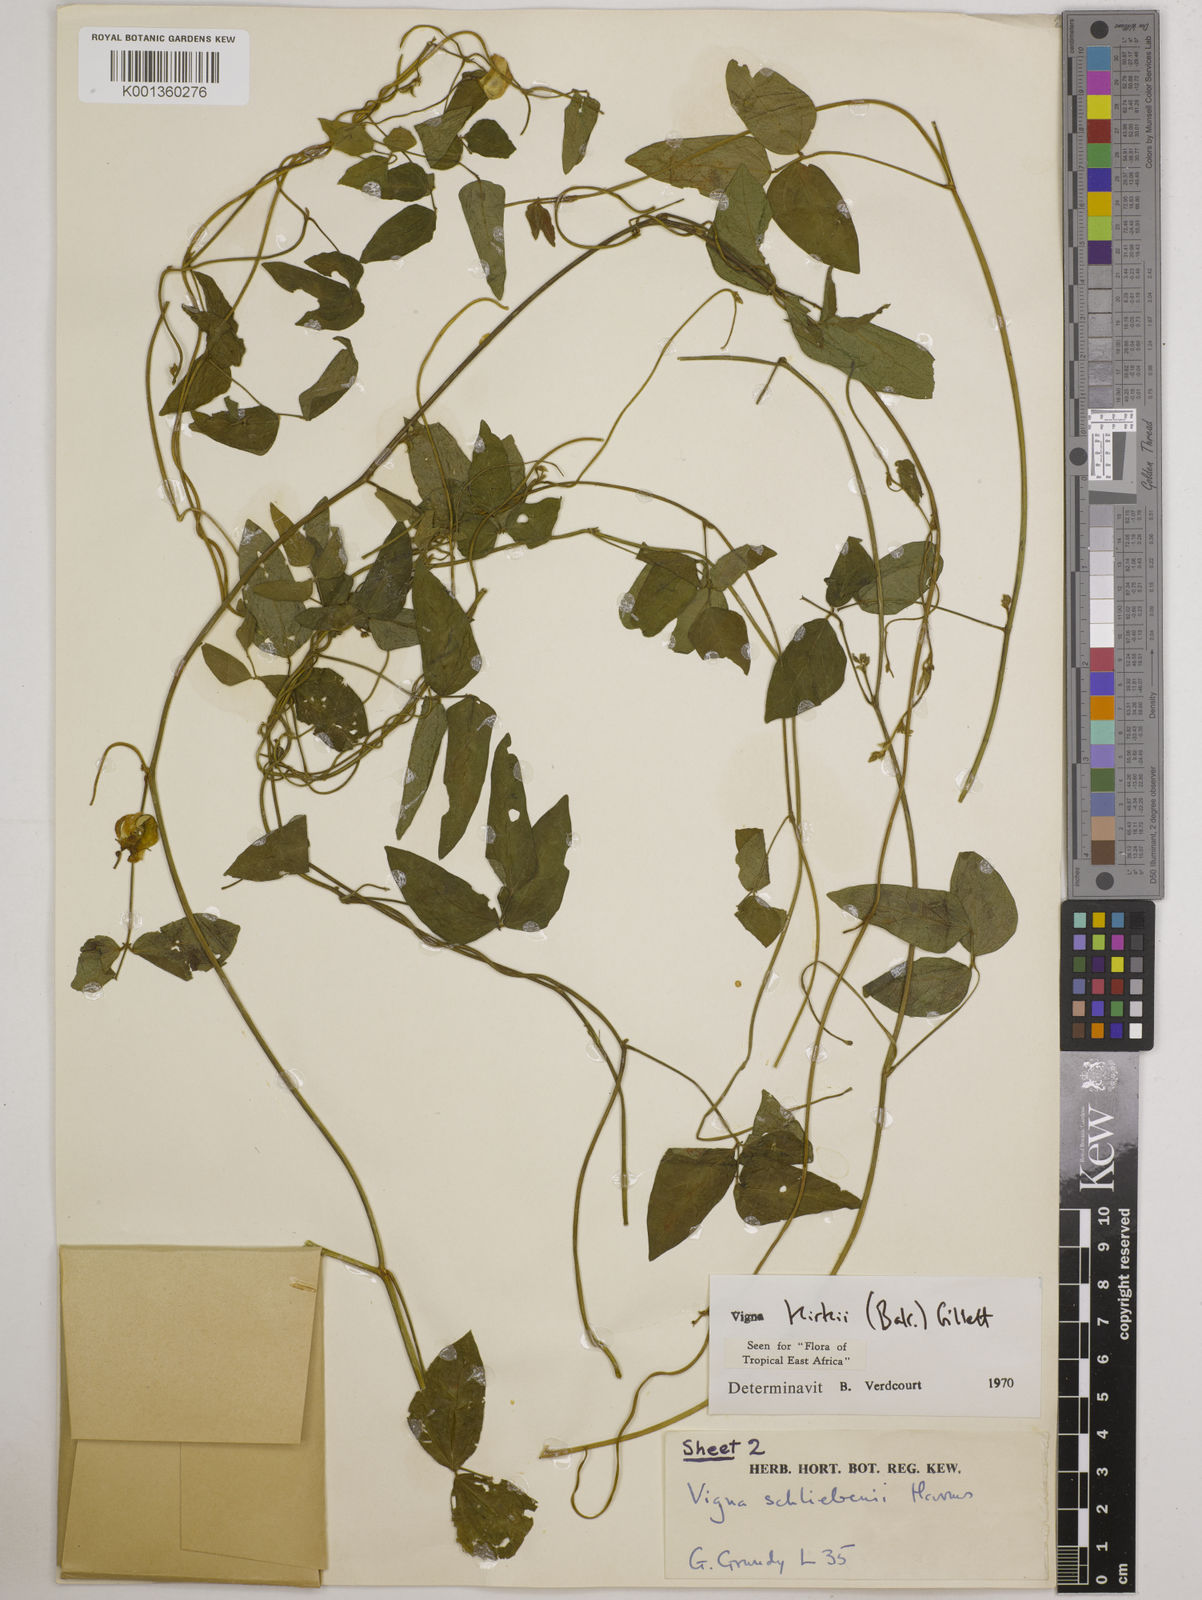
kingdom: Plantae
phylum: Tracheophyta
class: Magnoliopsida
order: Fabales
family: Fabaceae
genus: Vigna
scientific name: Vigna kirkii
